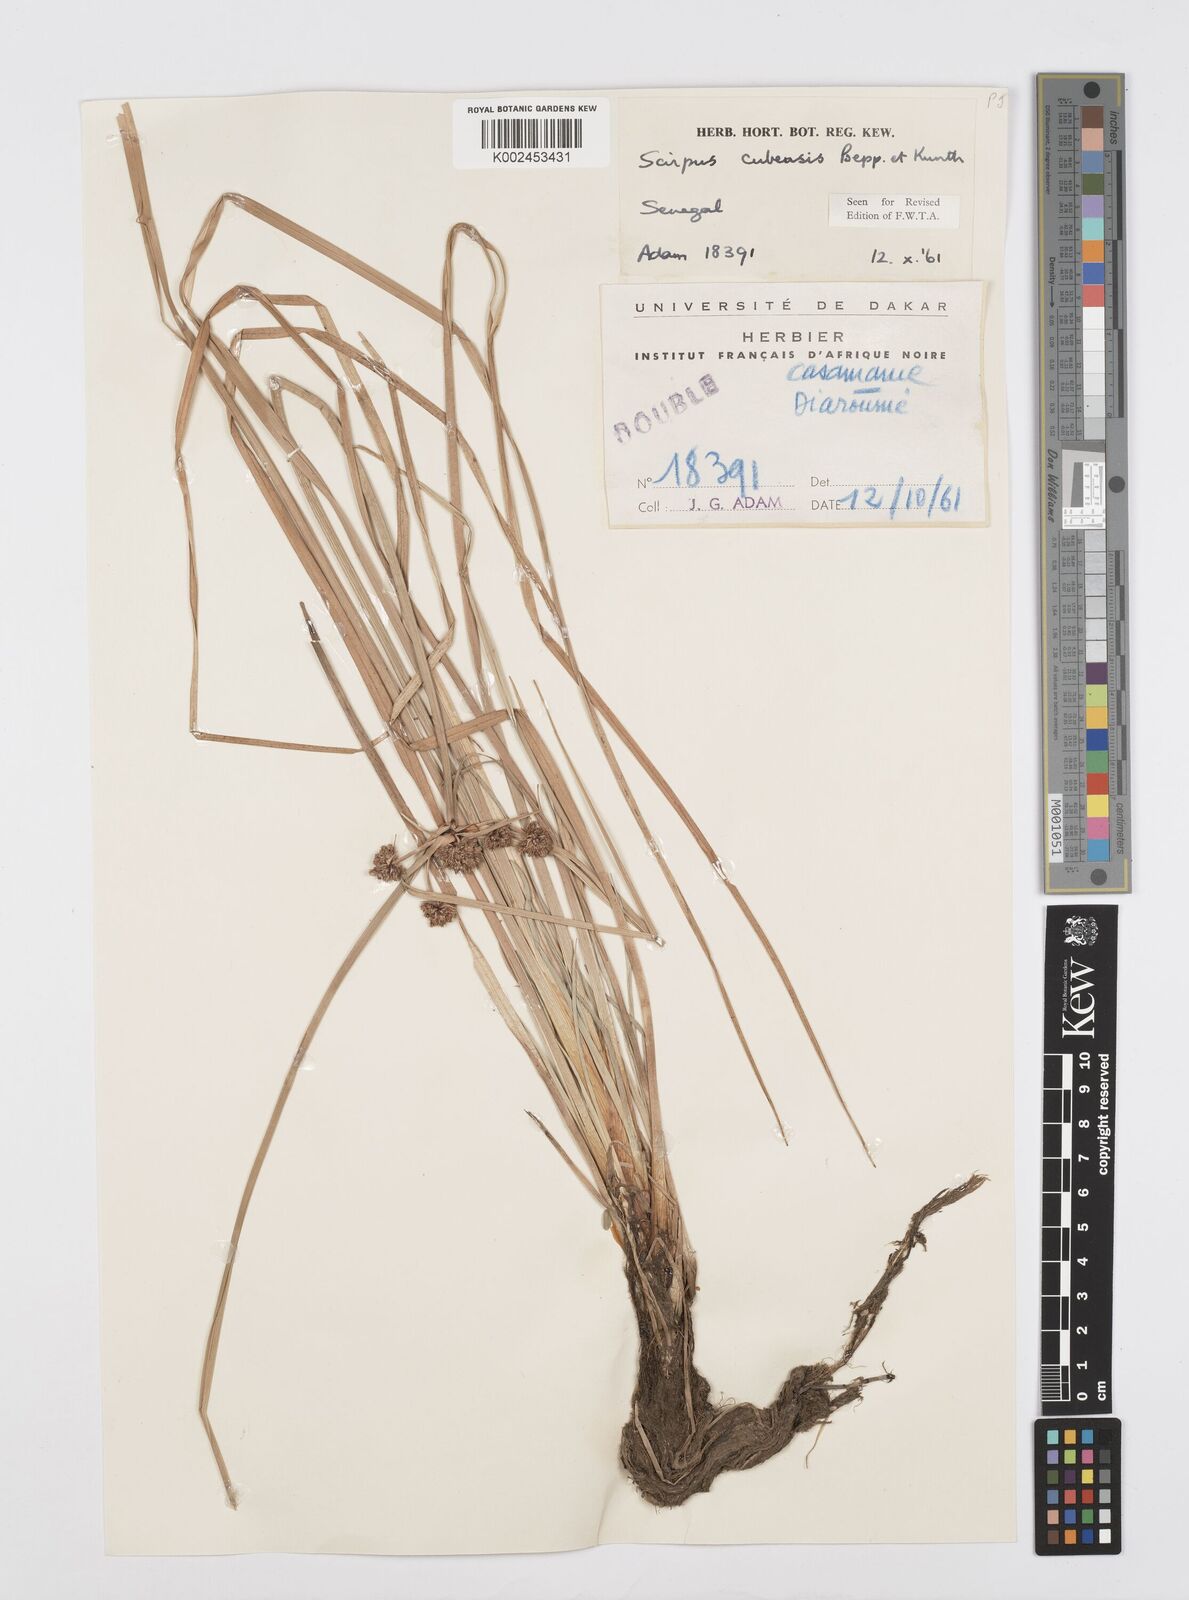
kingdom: Plantae
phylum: Tracheophyta
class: Liliopsida
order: Poales
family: Cyperaceae
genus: Cyperus
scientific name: Cyperus elegans
